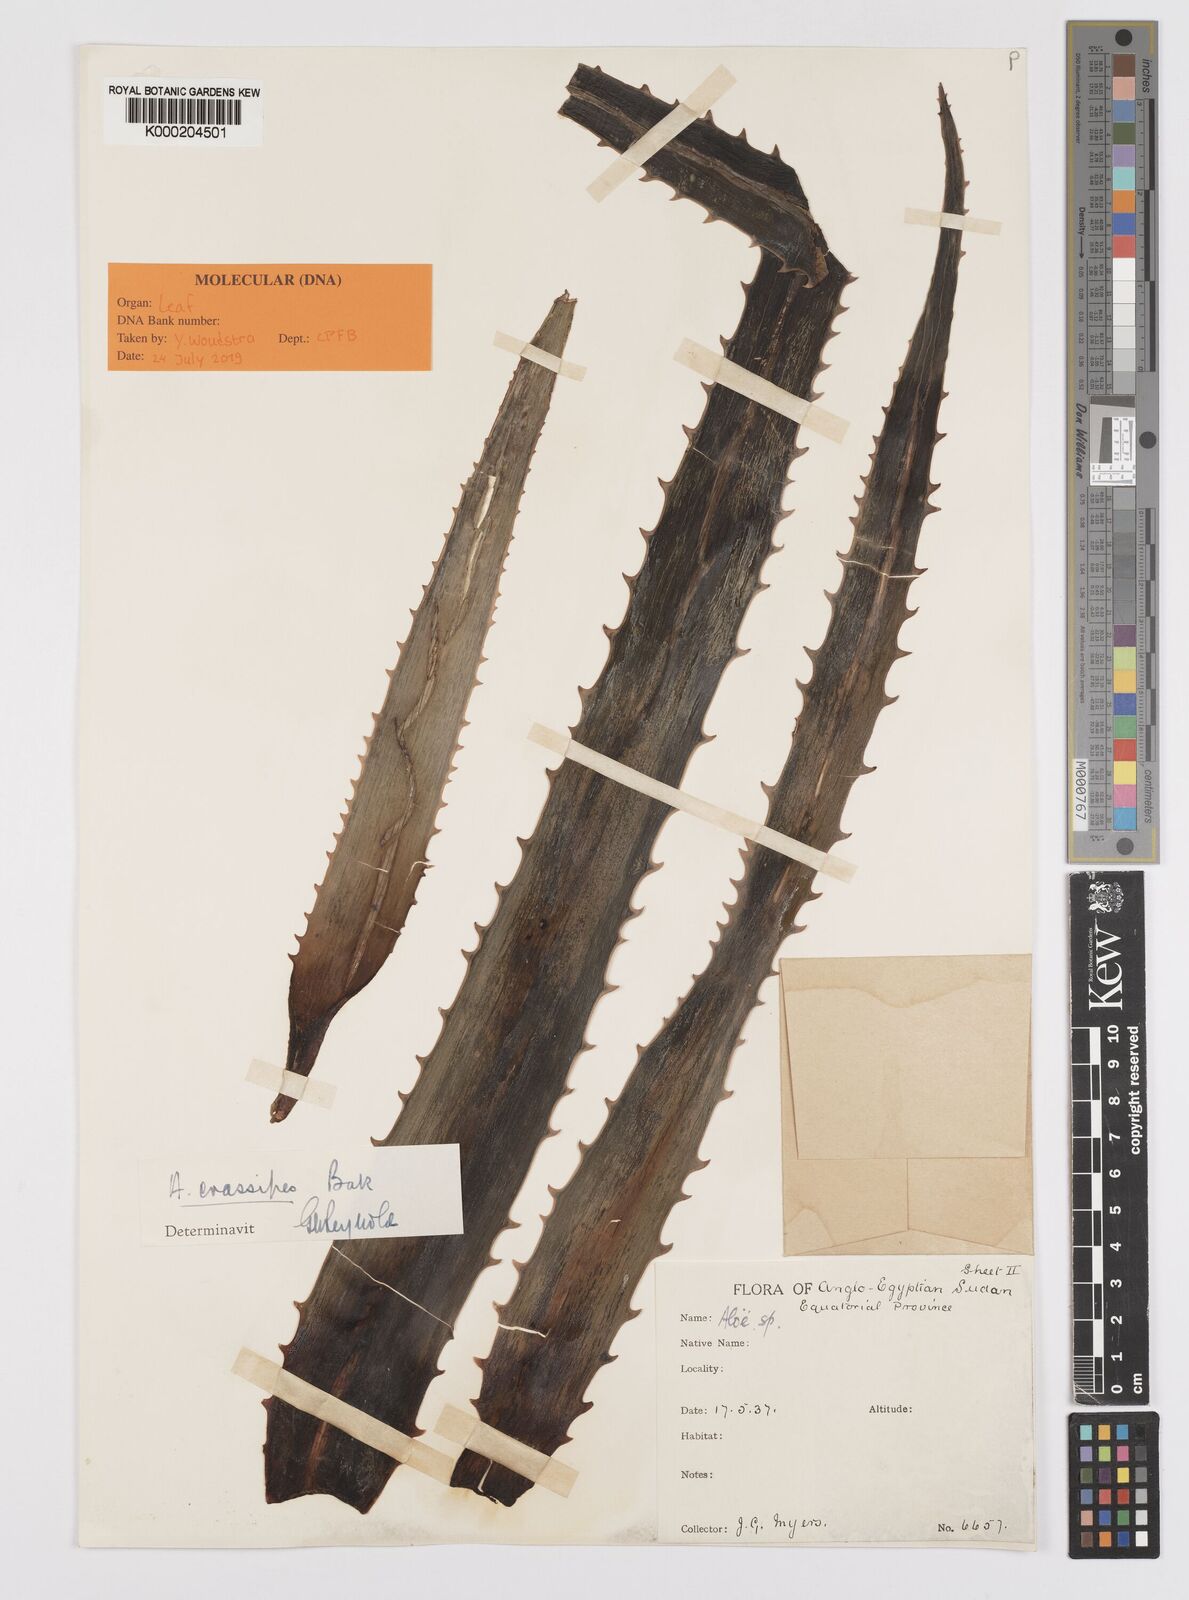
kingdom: Plantae
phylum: Tracheophyta
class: Liliopsida
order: Asparagales
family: Asphodelaceae
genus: Aloe
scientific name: Aloe crassipes
